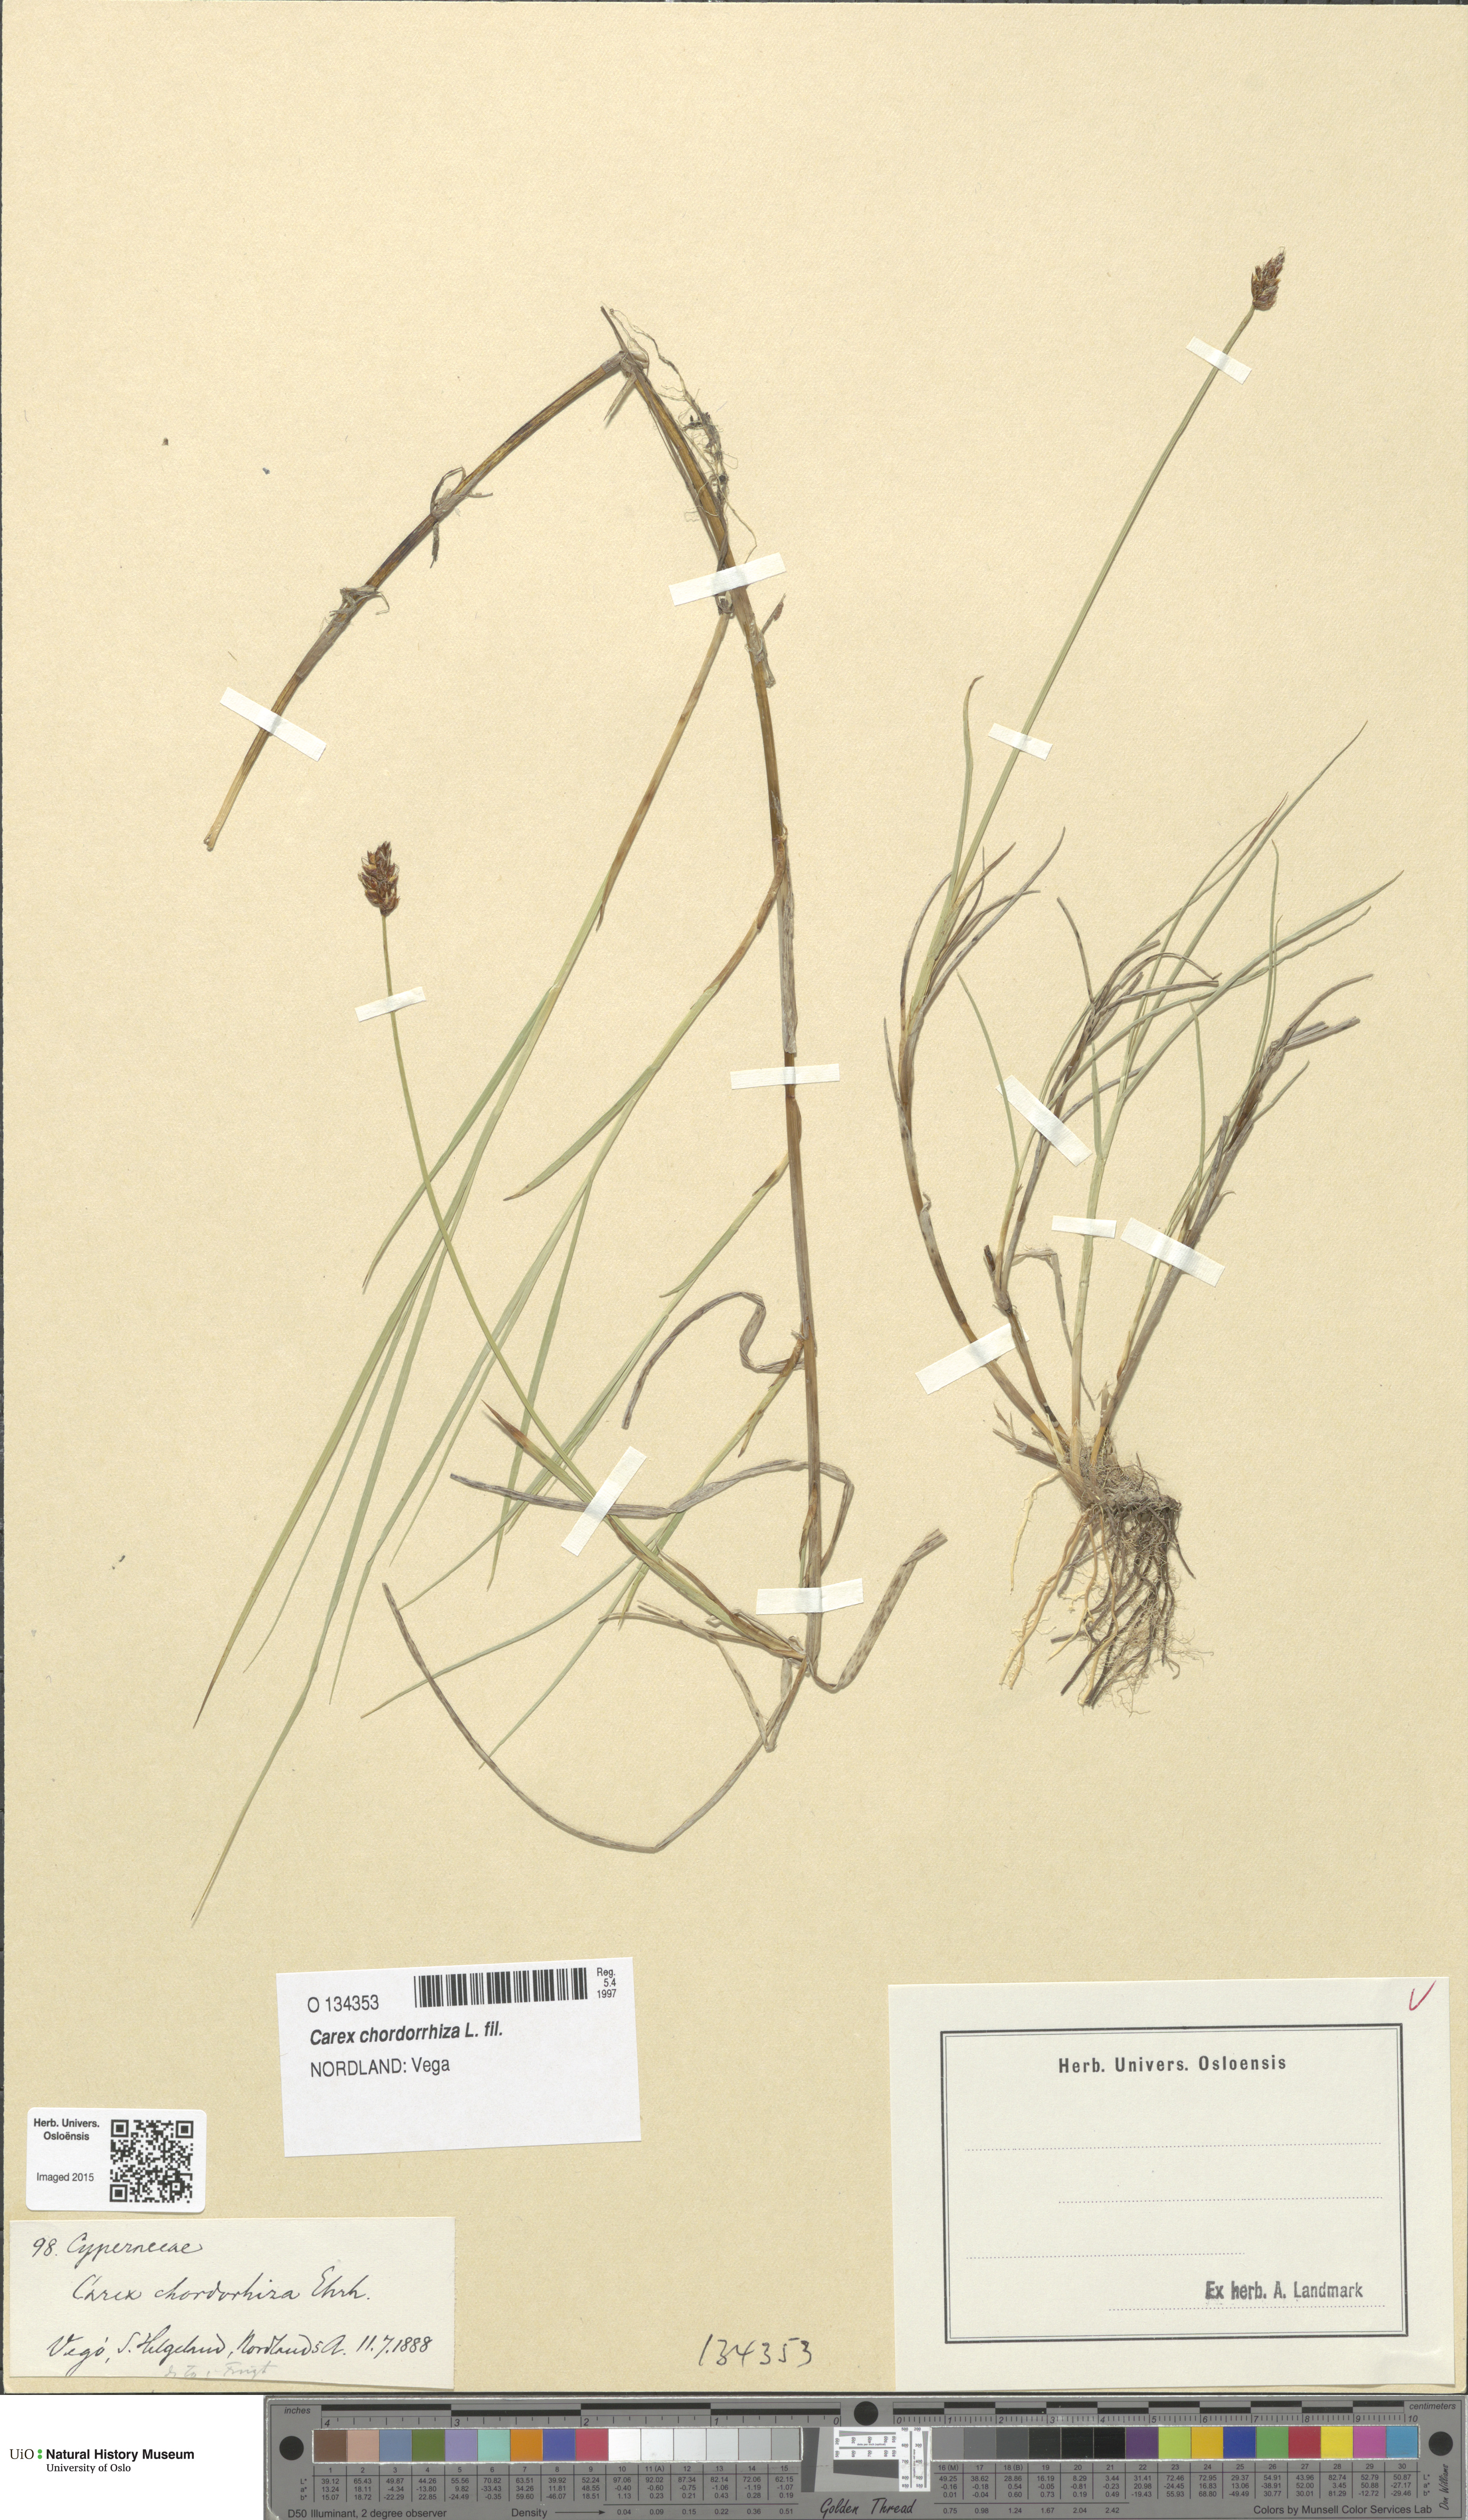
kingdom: Plantae
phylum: Tracheophyta
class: Liliopsida
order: Poales
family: Cyperaceae
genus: Carex
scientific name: Carex chordorrhiza
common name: String sedge
